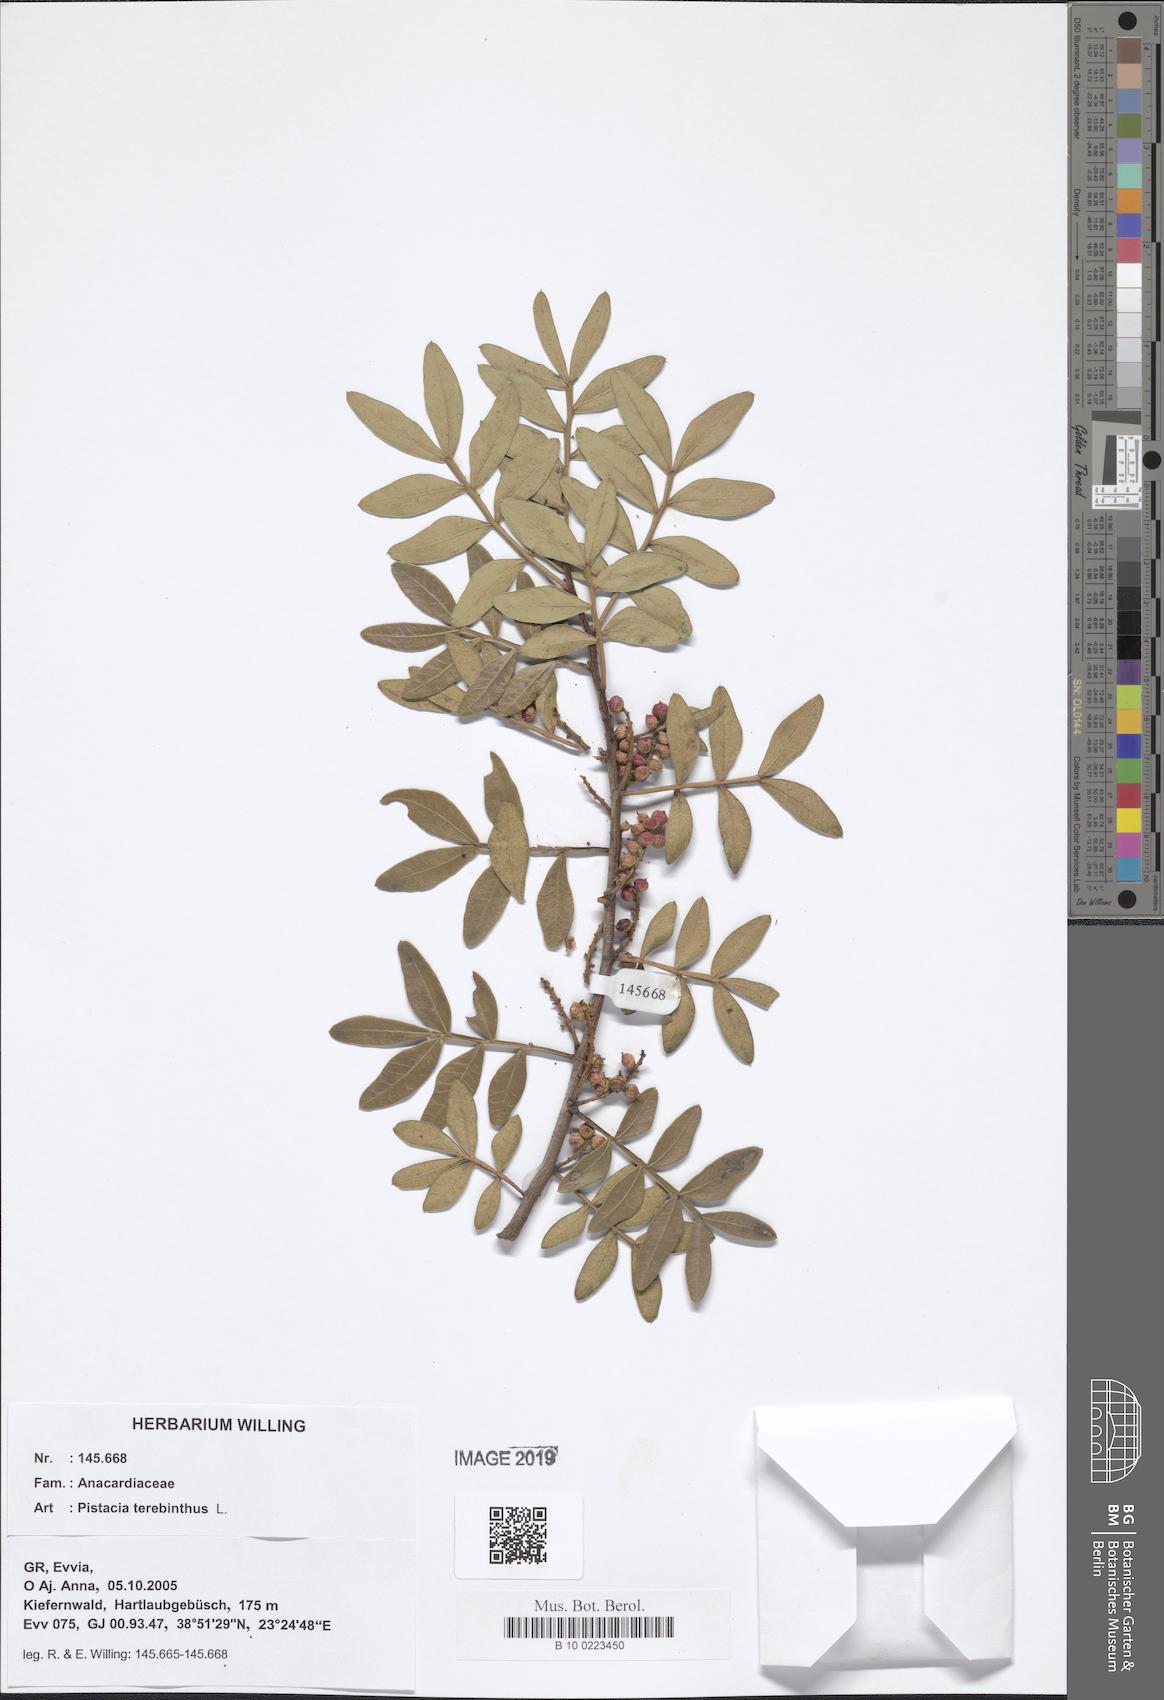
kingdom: Plantae
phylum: Tracheophyta
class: Magnoliopsida
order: Sapindales
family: Anacardiaceae
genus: Pistacia
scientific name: Pistacia terebinthus
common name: Terebinth
